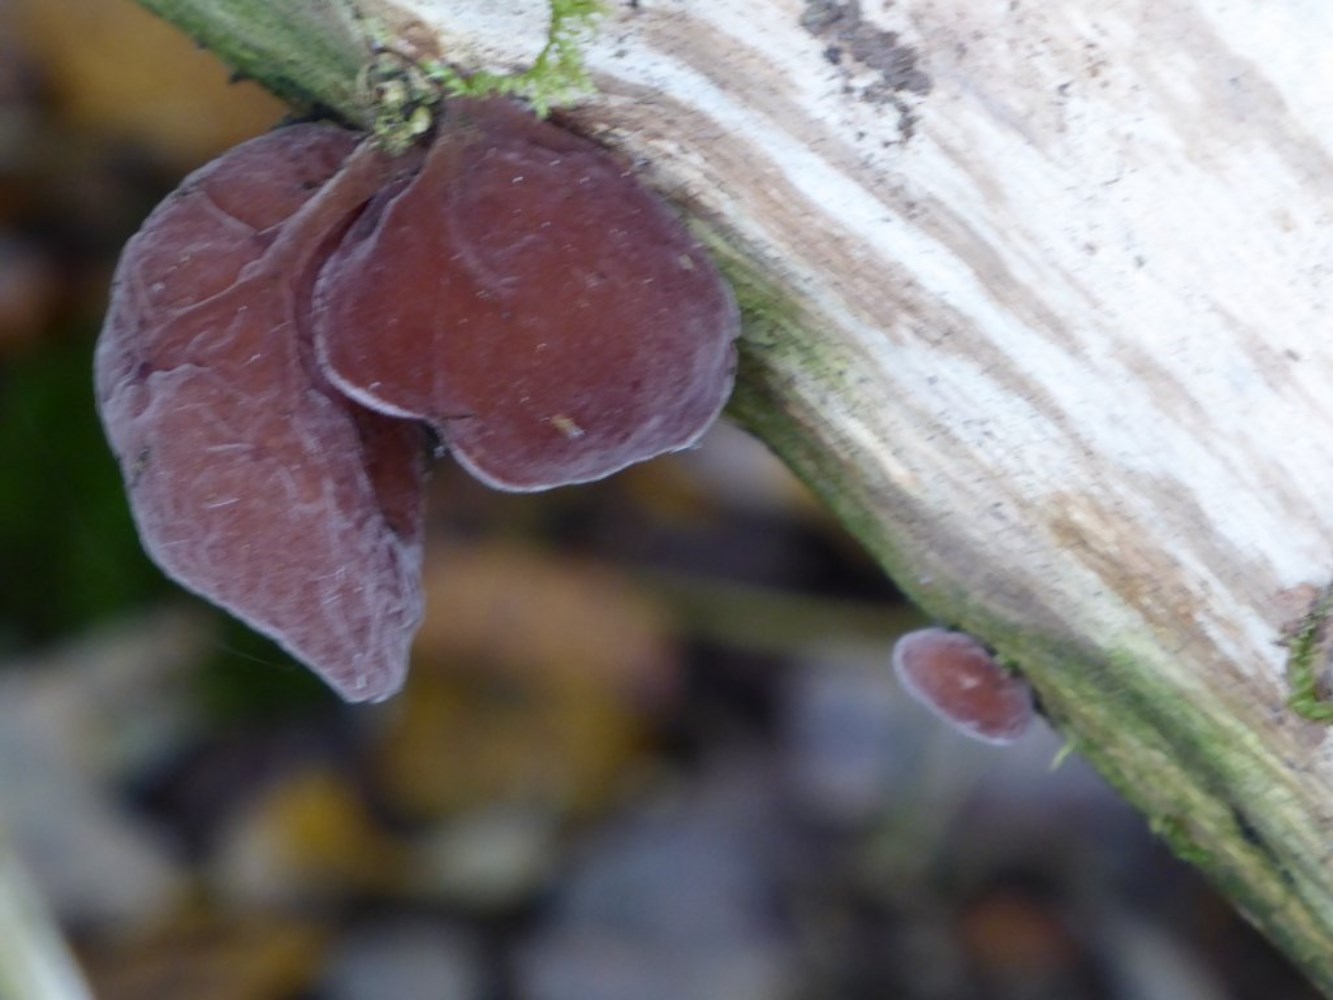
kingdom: Fungi
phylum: Basidiomycota
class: Agaricomycetes
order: Auriculariales
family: Auriculariaceae
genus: Auricularia
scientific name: Auricularia auricula-judae
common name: almindelig judasøre
